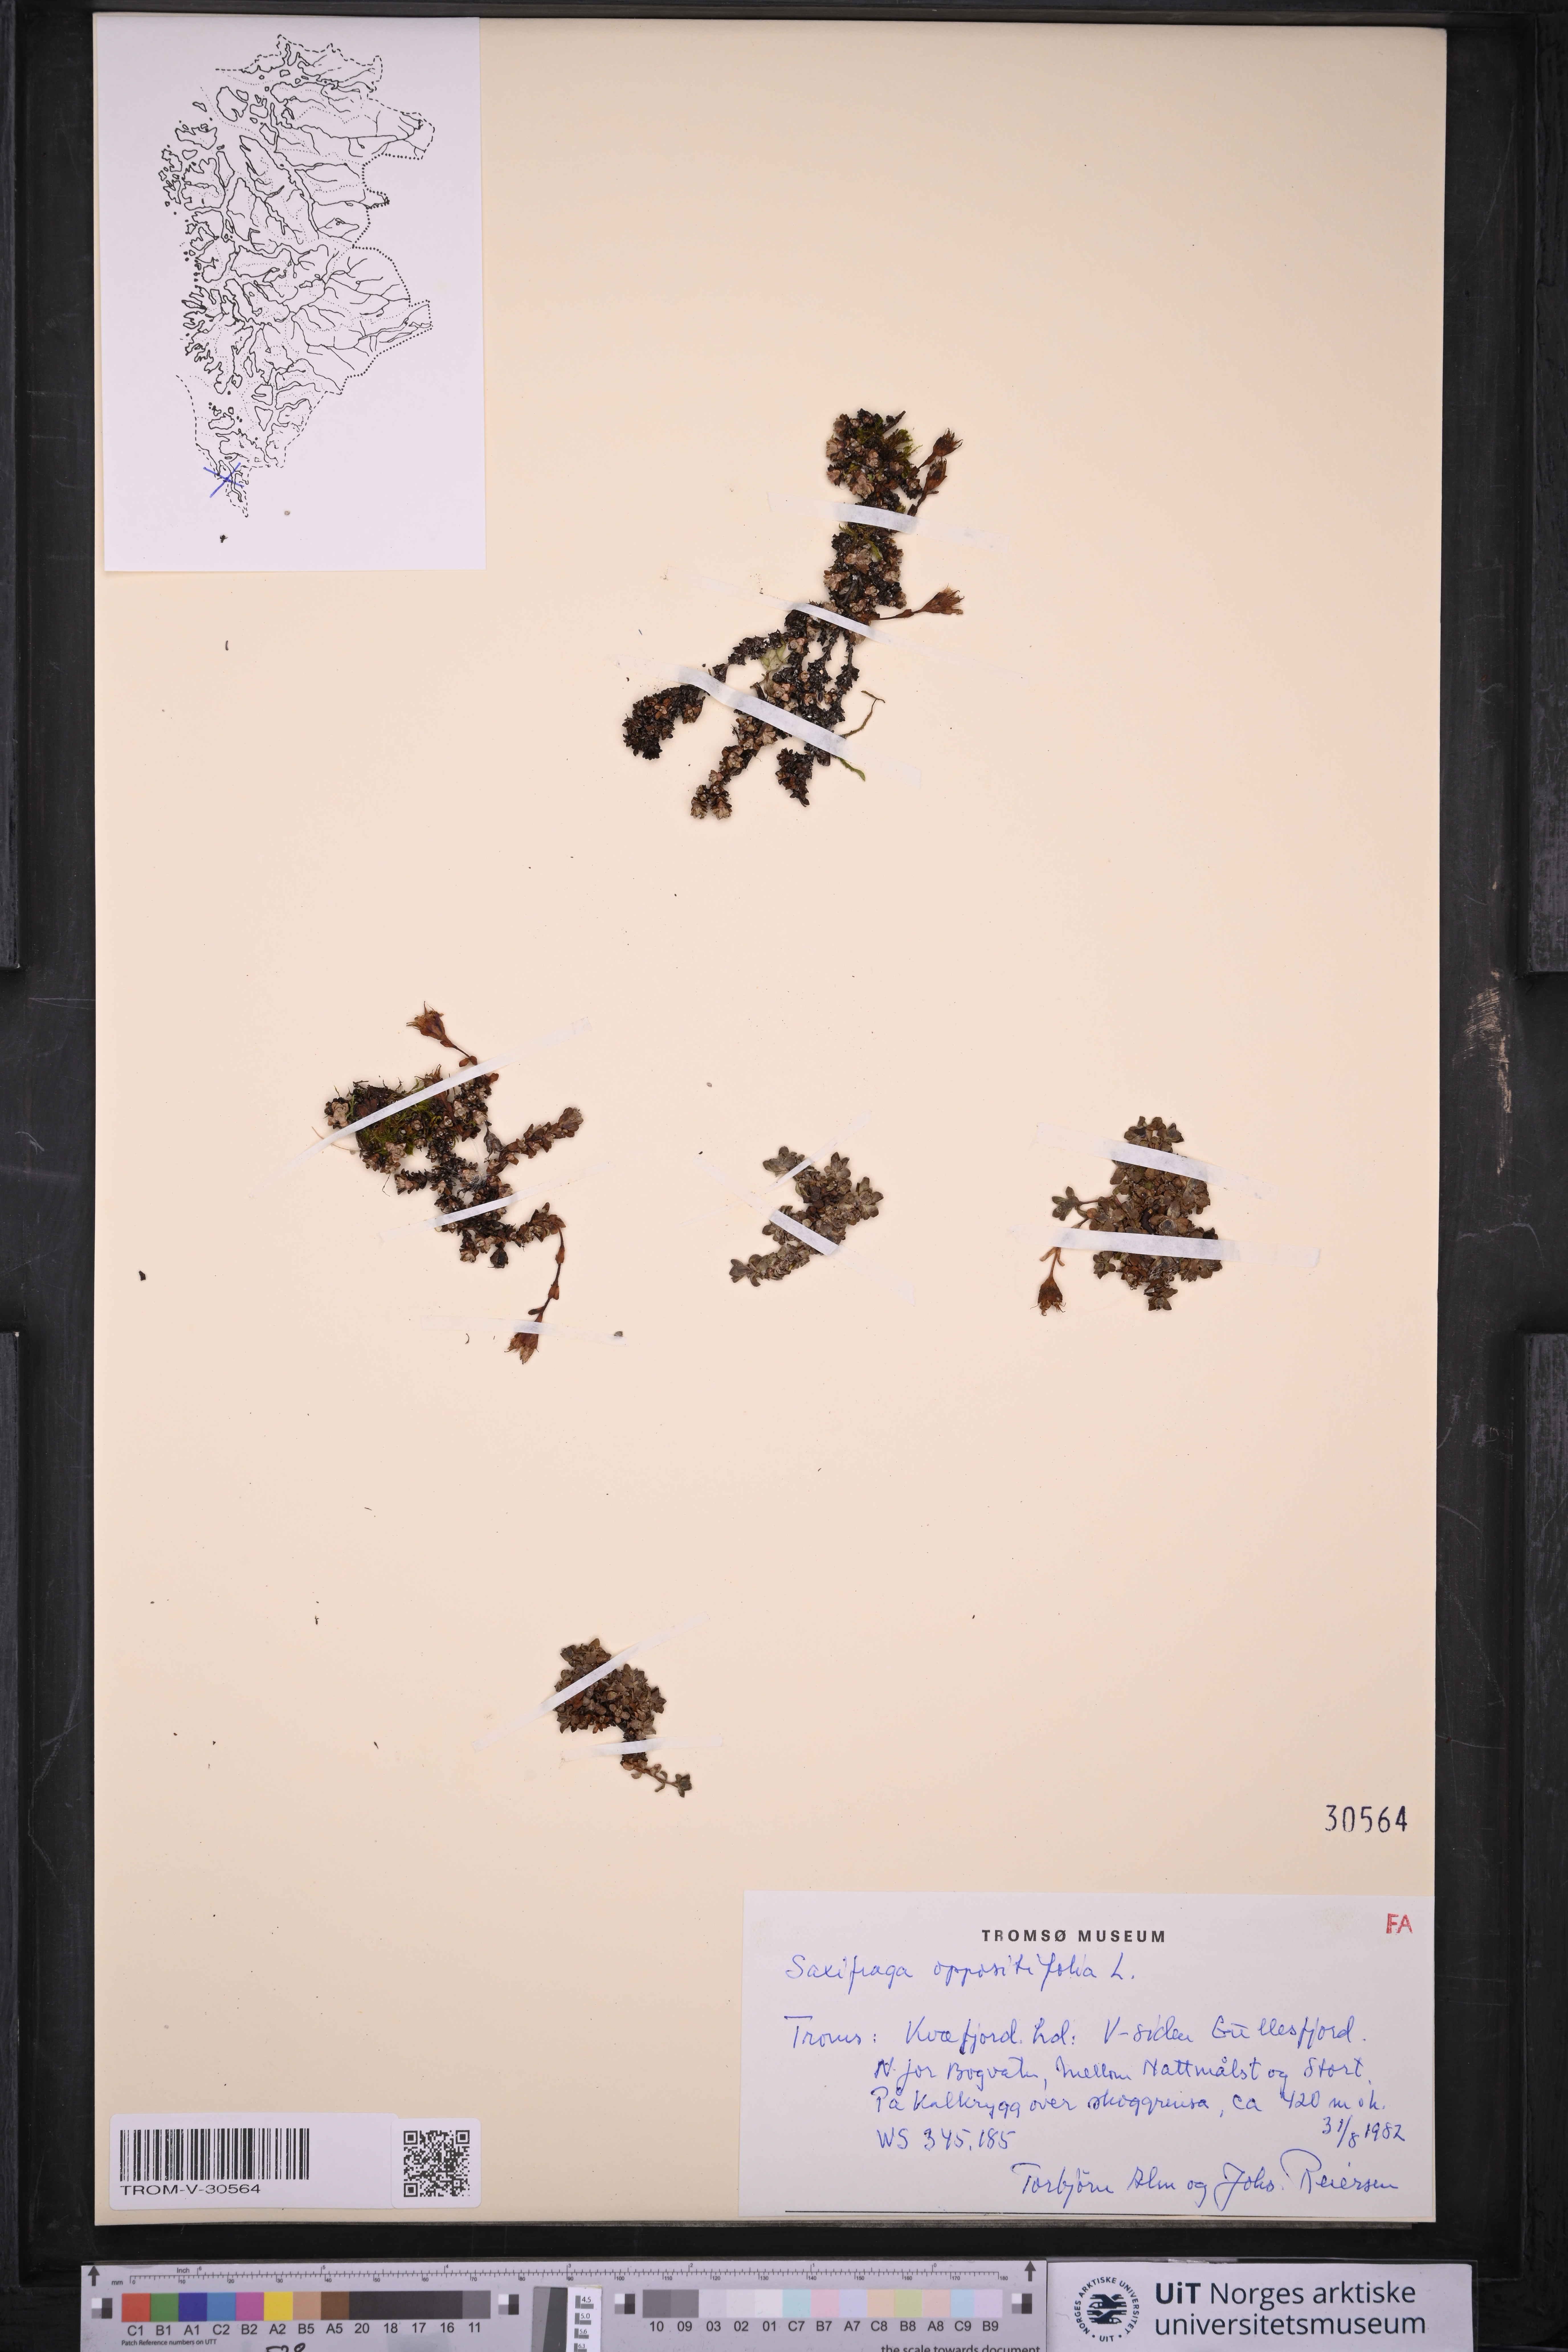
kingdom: Plantae
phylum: Tracheophyta
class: Magnoliopsida
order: Saxifragales
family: Saxifragaceae
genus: Saxifraga
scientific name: Saxifraga oppositifolia
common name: Purple saxifrage
